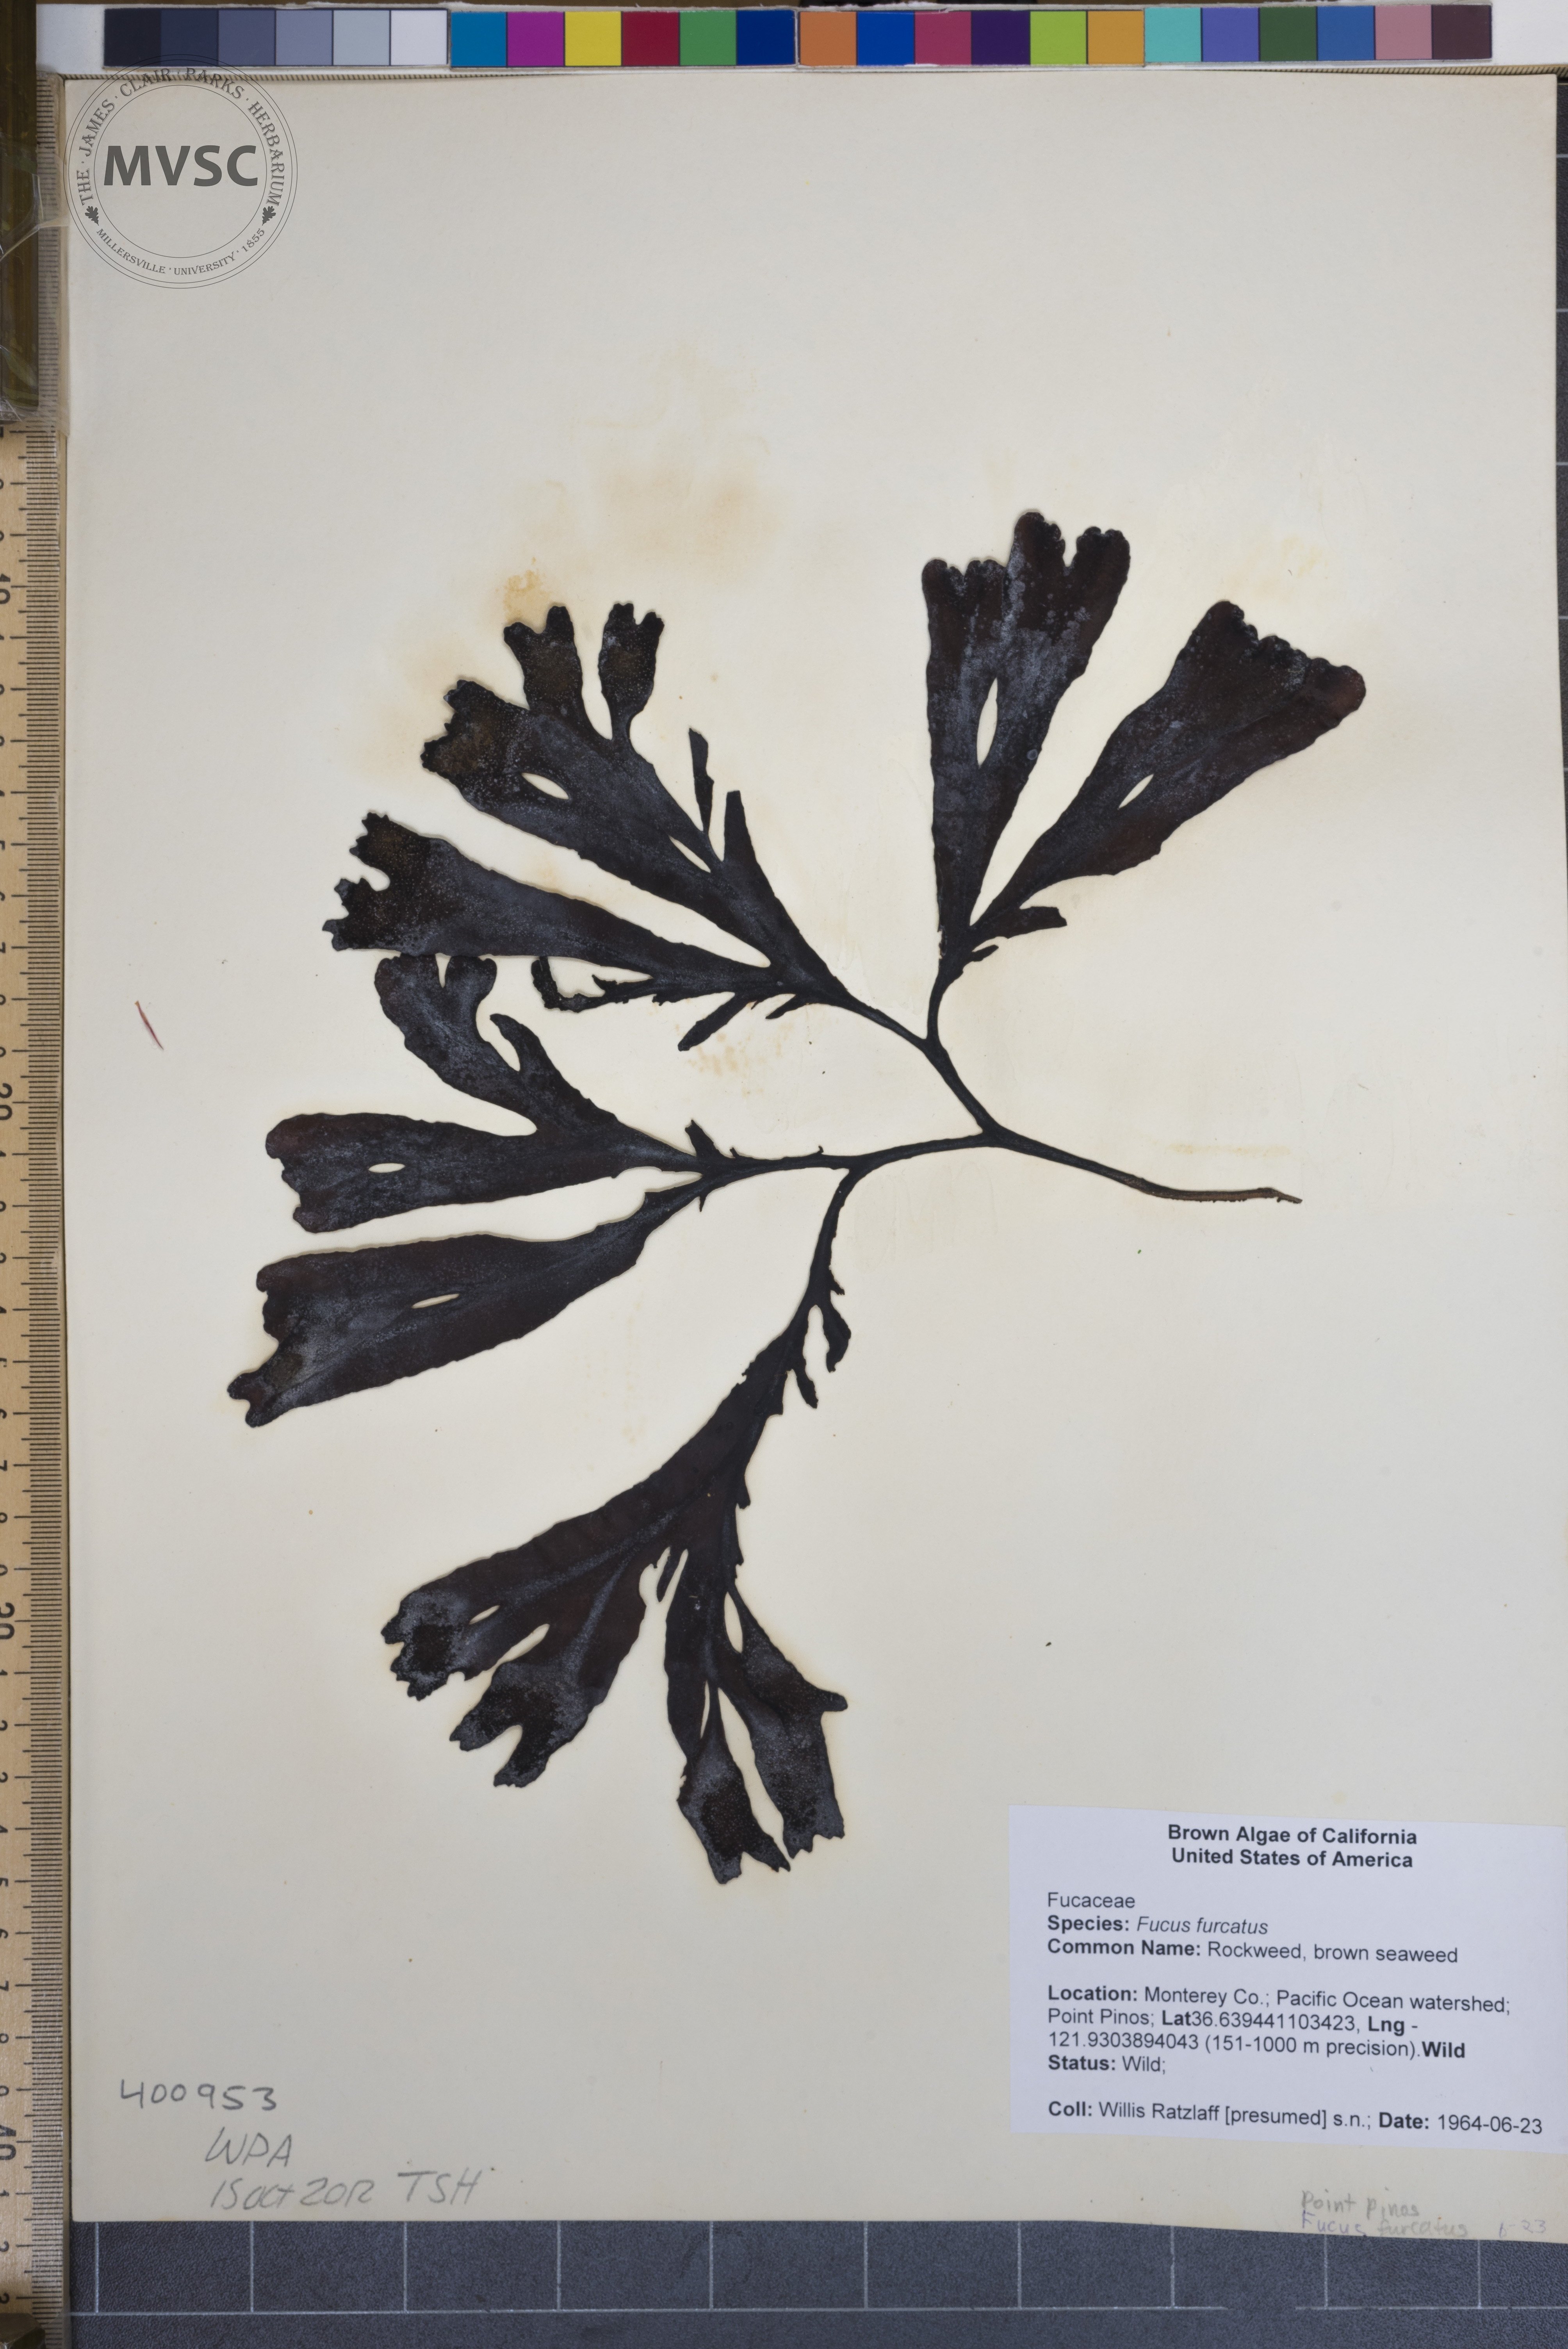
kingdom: Chromista
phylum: Ochrophyta
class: Phaeophyceae
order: Fucales
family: Fucaceae
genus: Fucus
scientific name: Fucus distichus
